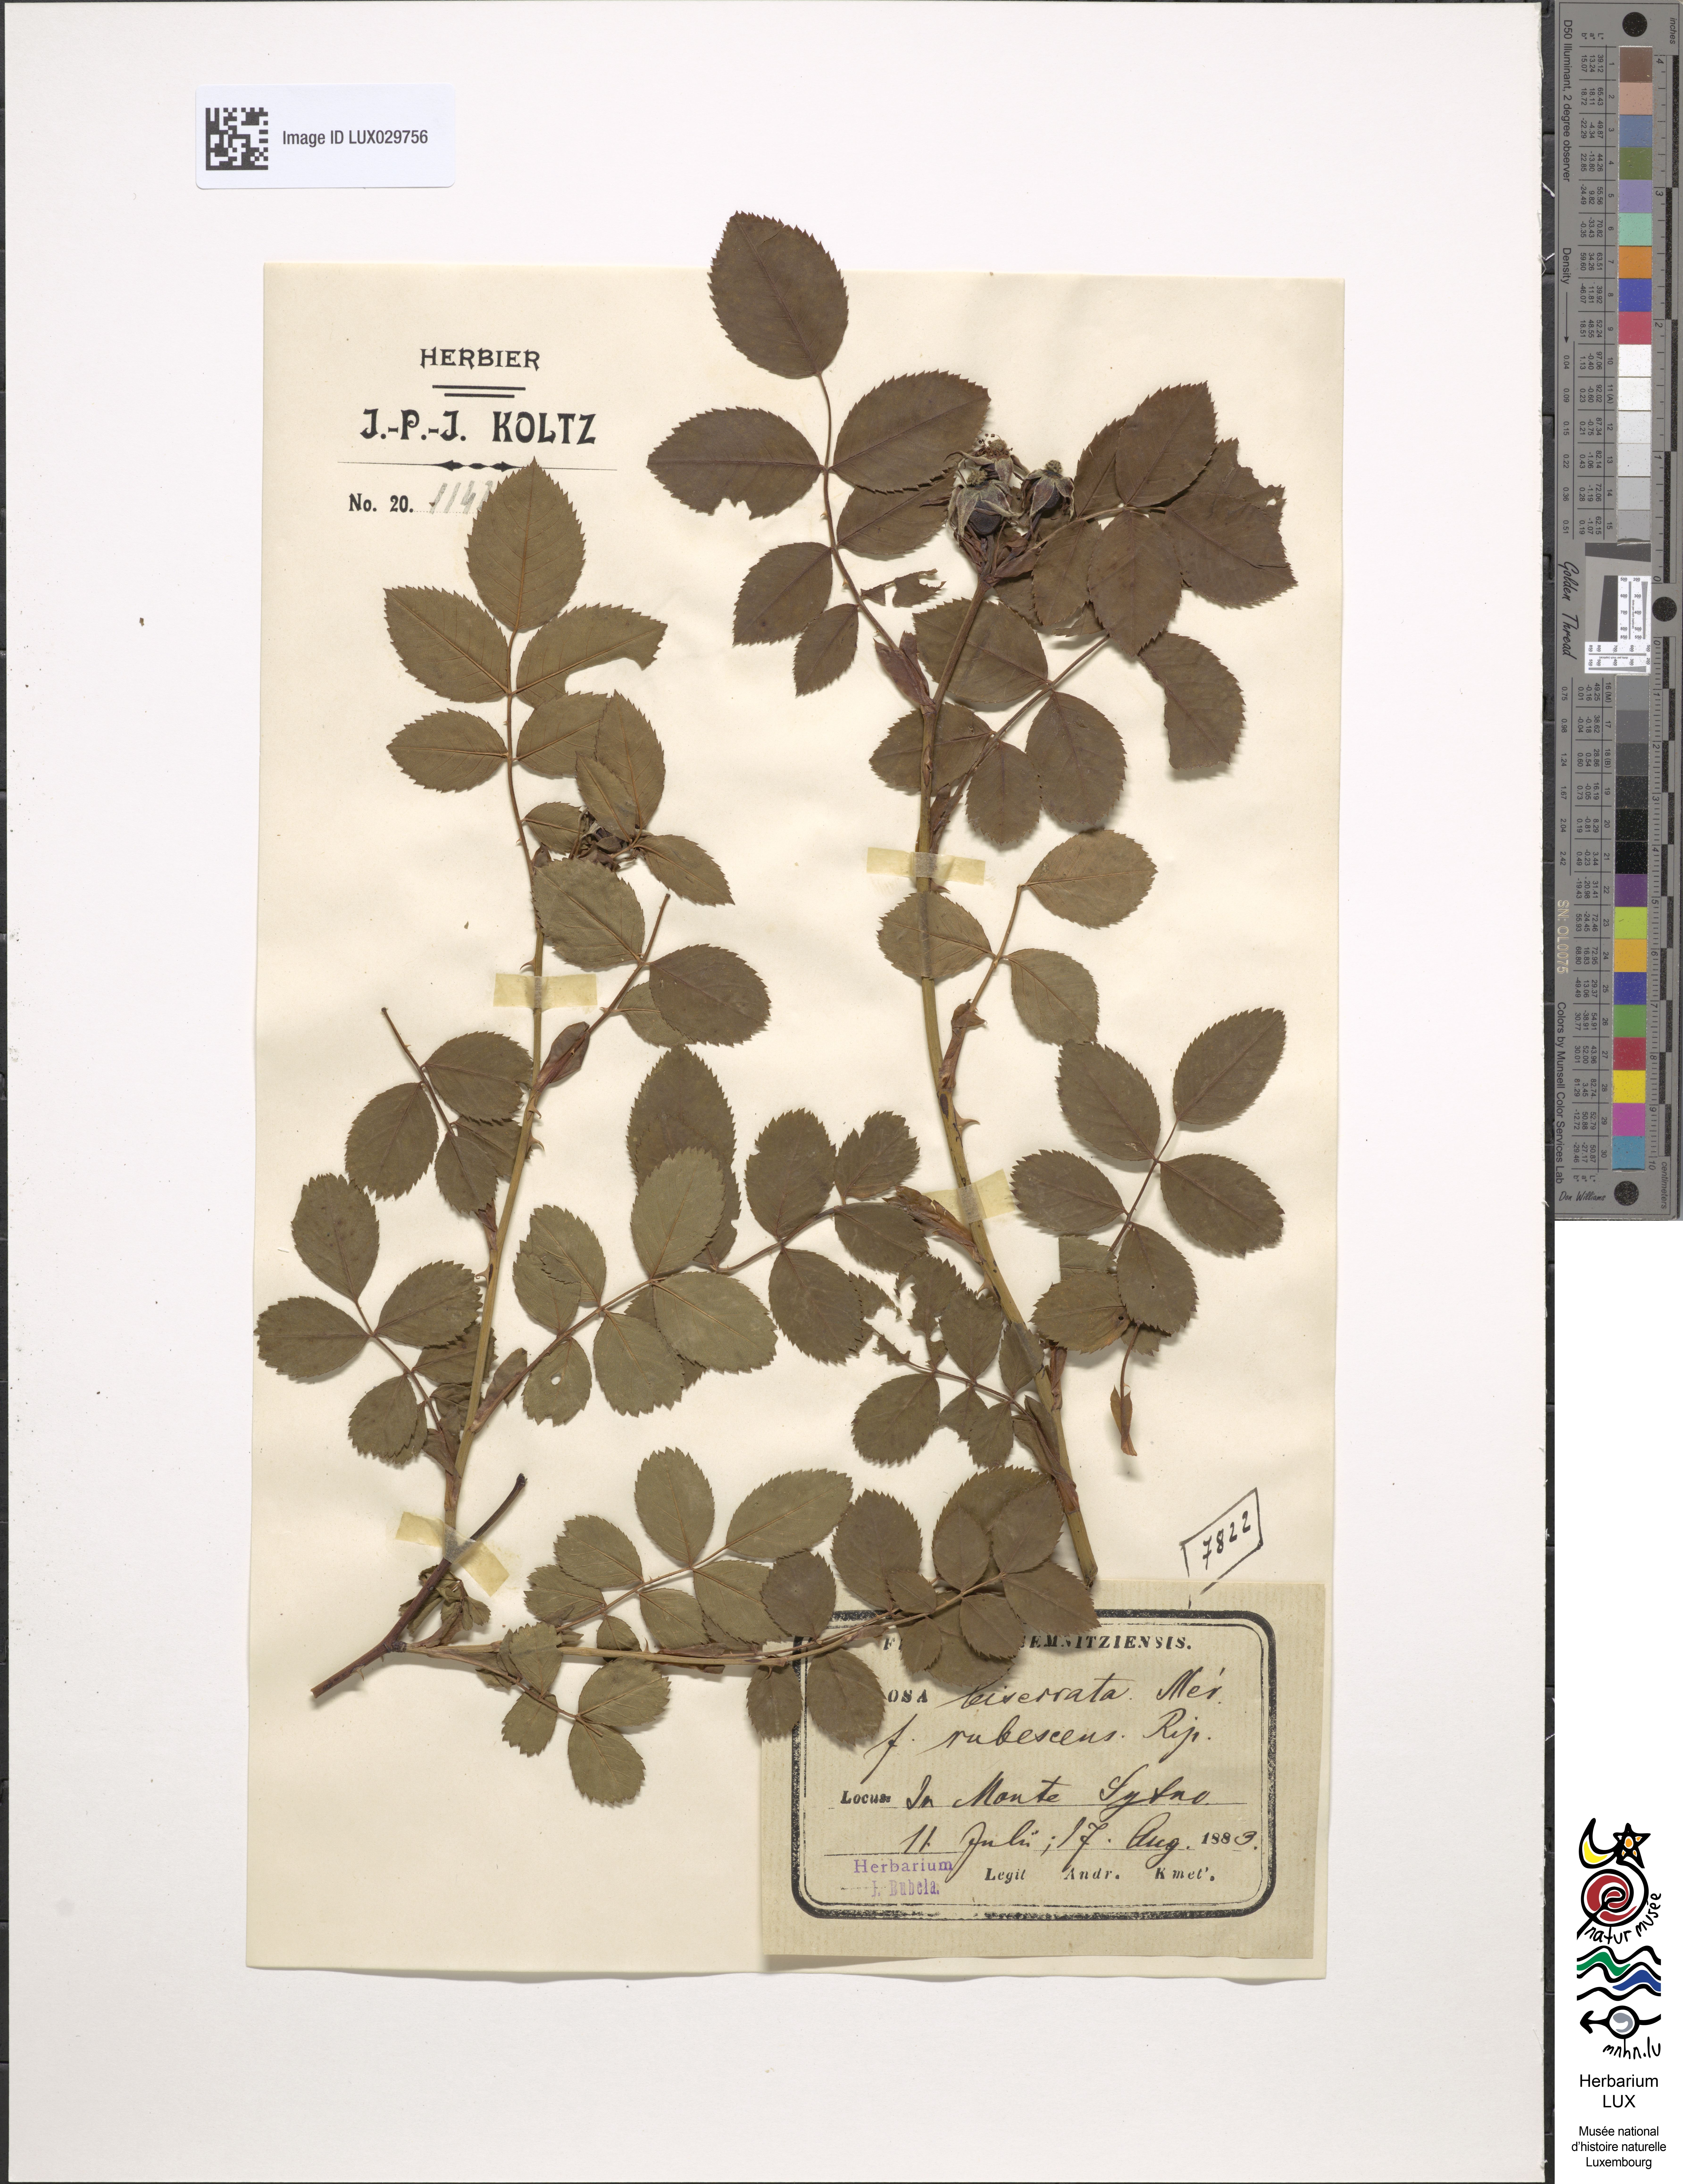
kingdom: Plantae
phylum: Tracheophyta
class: Magnoliopsida
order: Rosales
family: Rosaceae
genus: Rosa
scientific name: Rosa canina
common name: Dog rose
